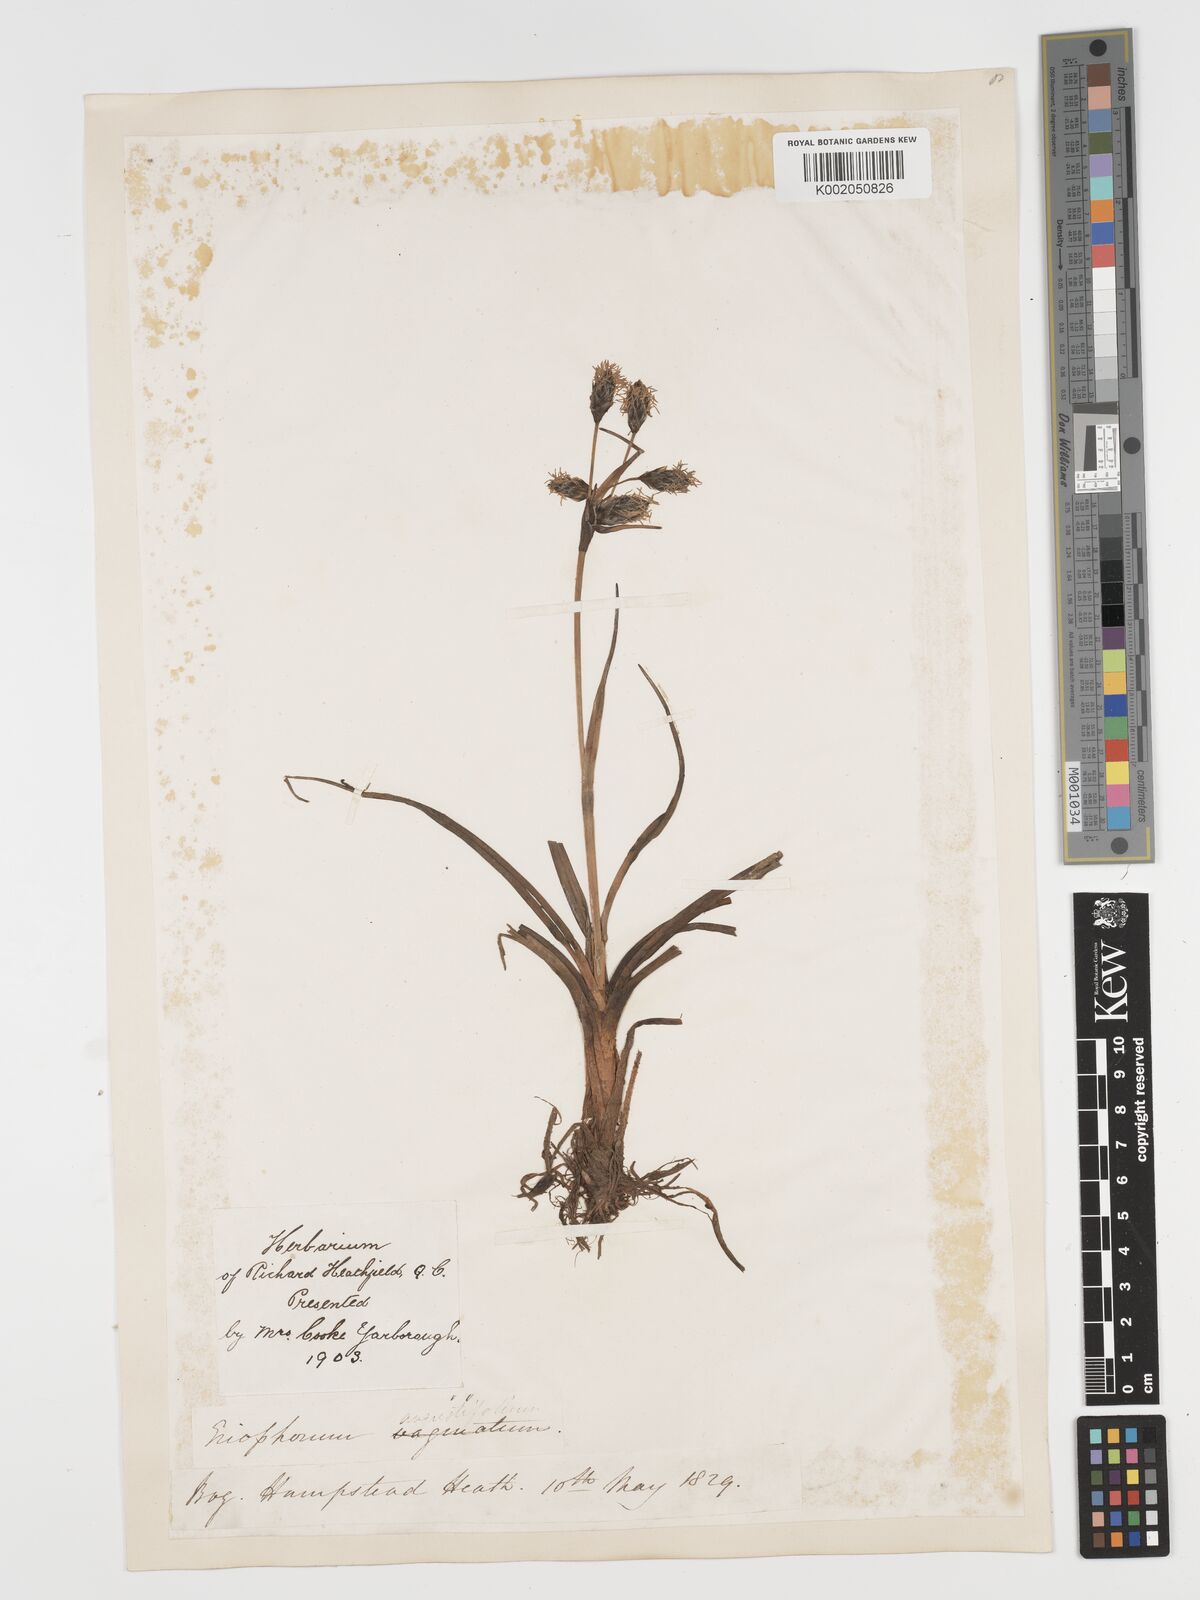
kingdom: Plantae
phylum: Tracheophyta
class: Liliopsida
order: Poales
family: Cyperaceae
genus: Eriophorum
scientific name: Eriophorum angustifolium
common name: Common cottongrass
